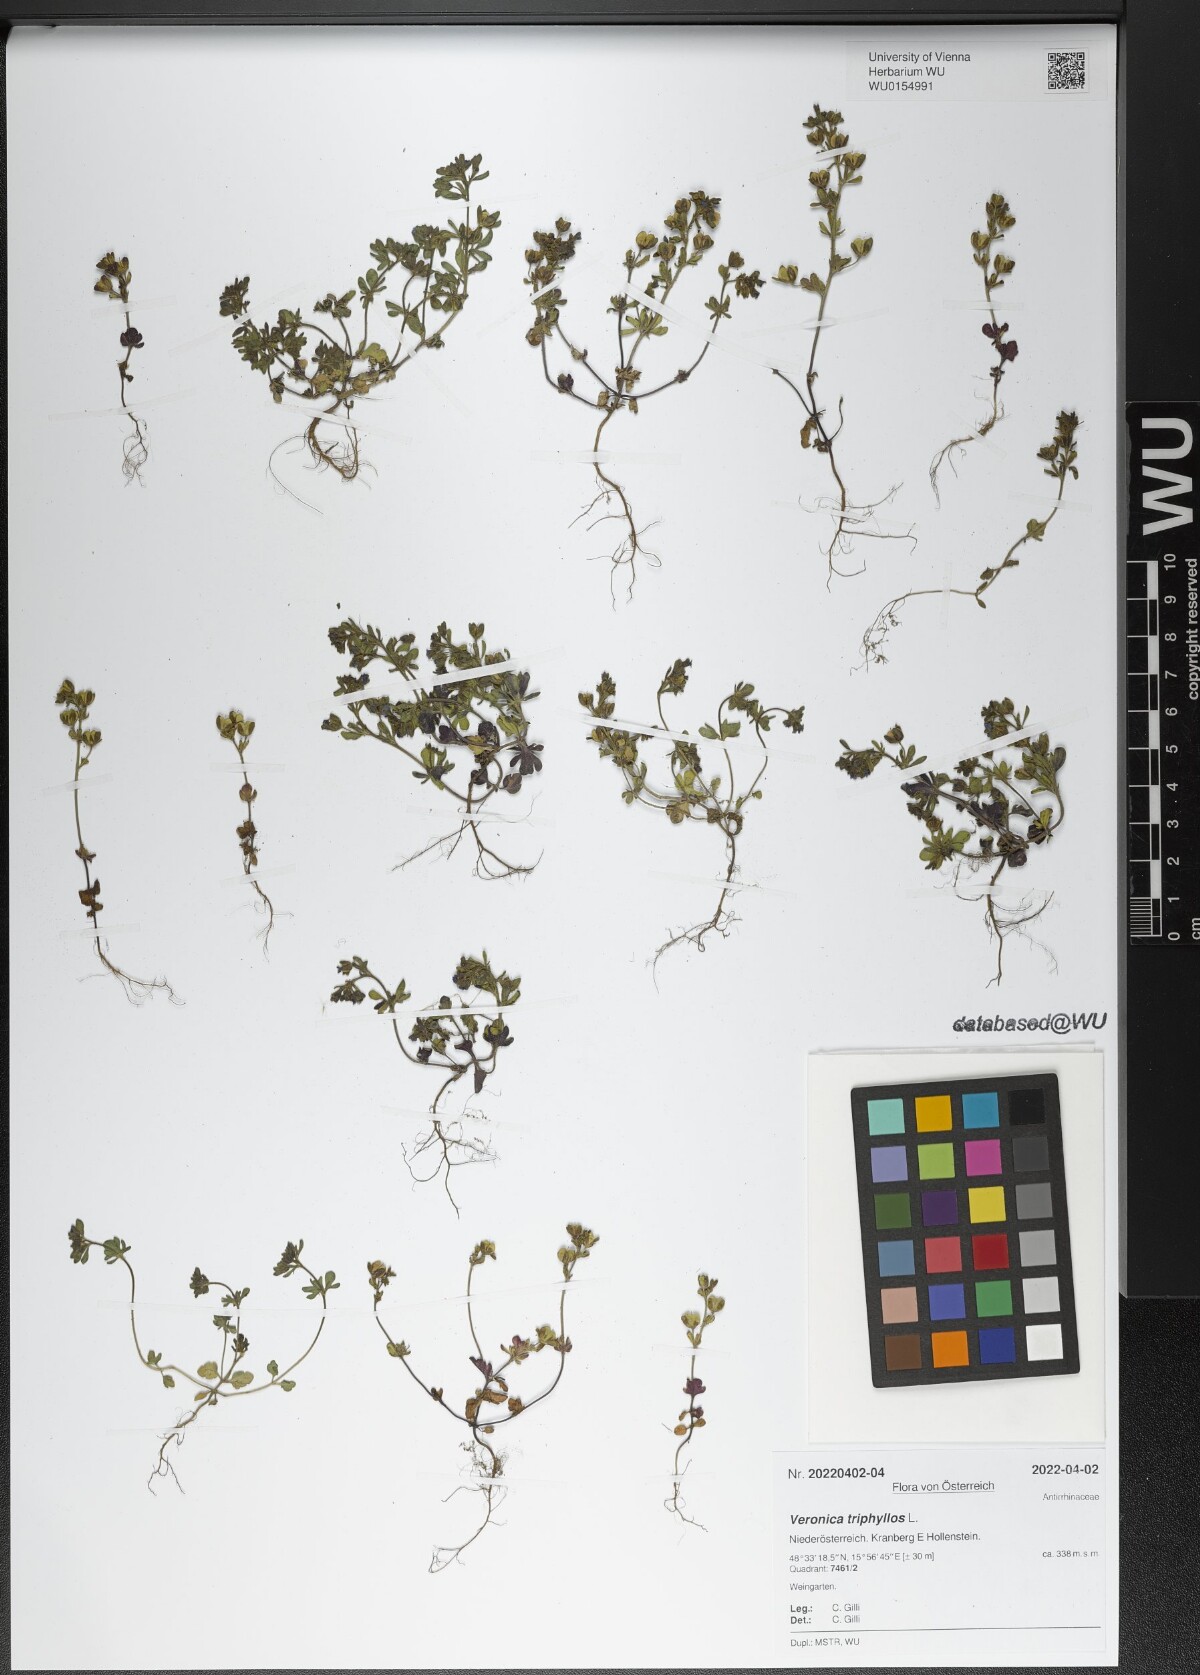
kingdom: Plantae
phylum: Tracheophyta
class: Magnoliopsida
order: Lamiales
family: Plantaginaceae
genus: Veronica
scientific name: Veronica triphyllos
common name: Fingered speedwell
